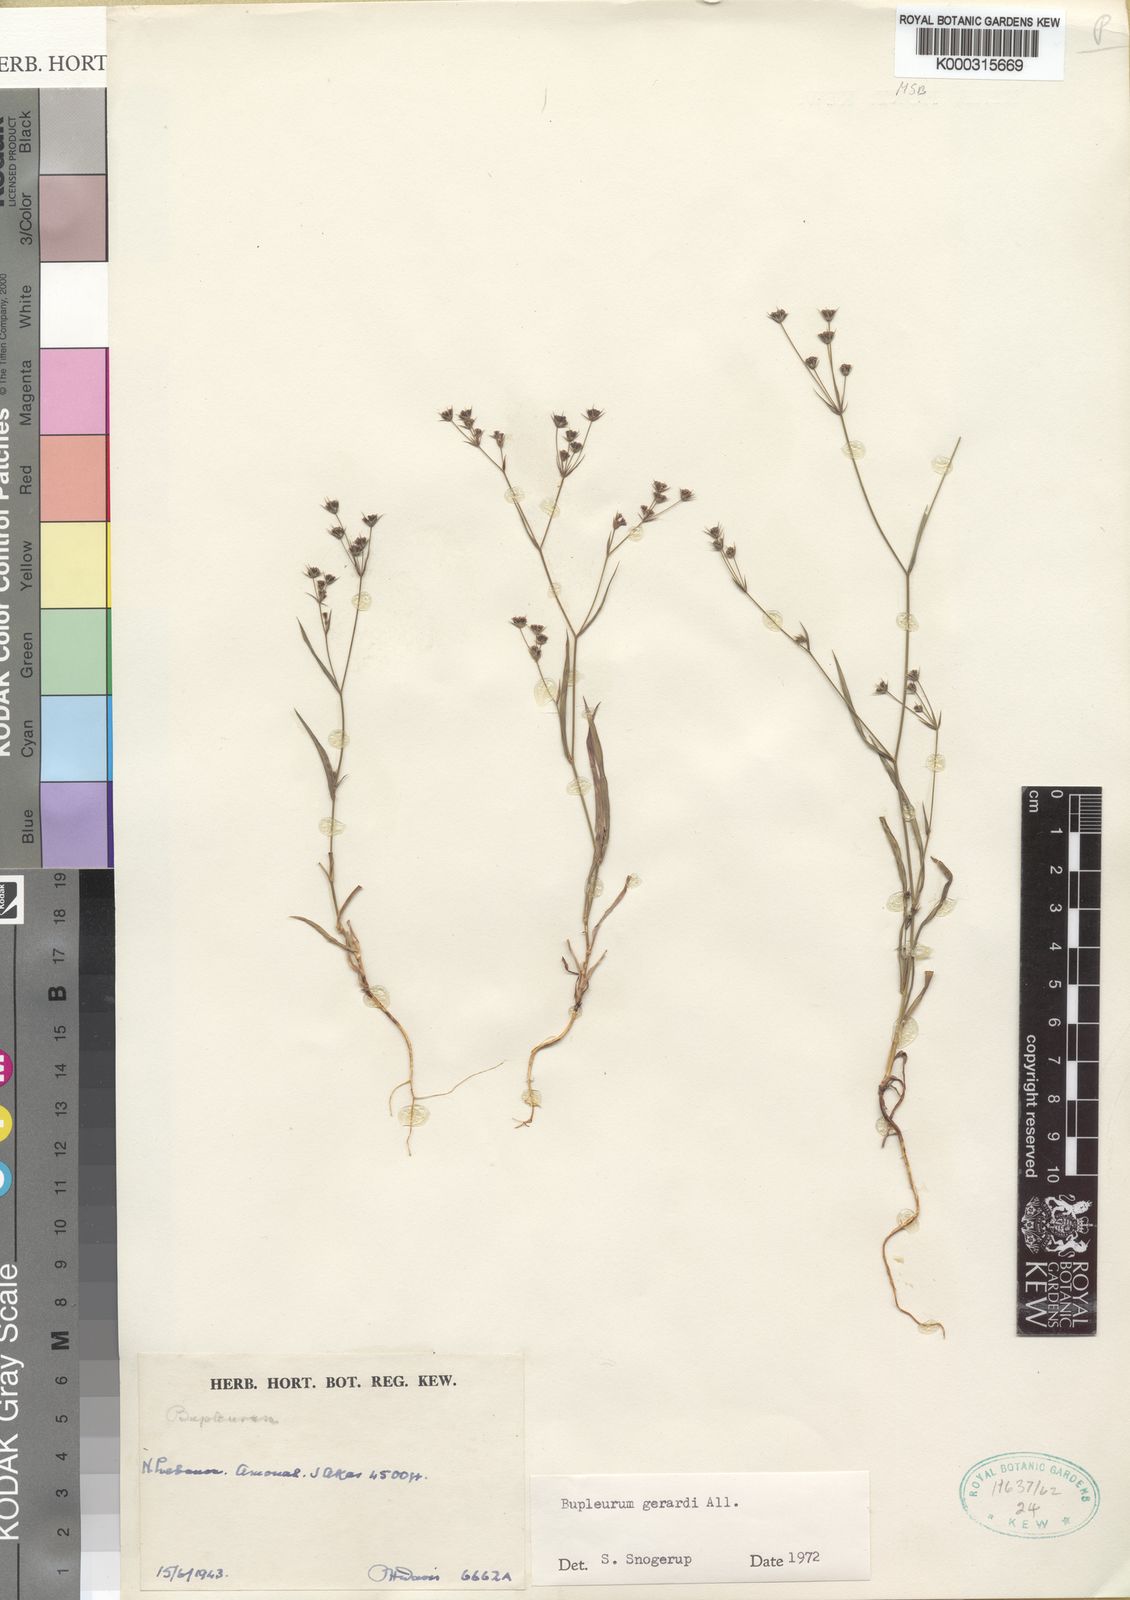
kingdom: Plantae
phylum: Tracheophyta
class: Magnoliopsida
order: Apiales
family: Apiaceae
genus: Bupleurum
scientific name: Bupleurum gerardi
